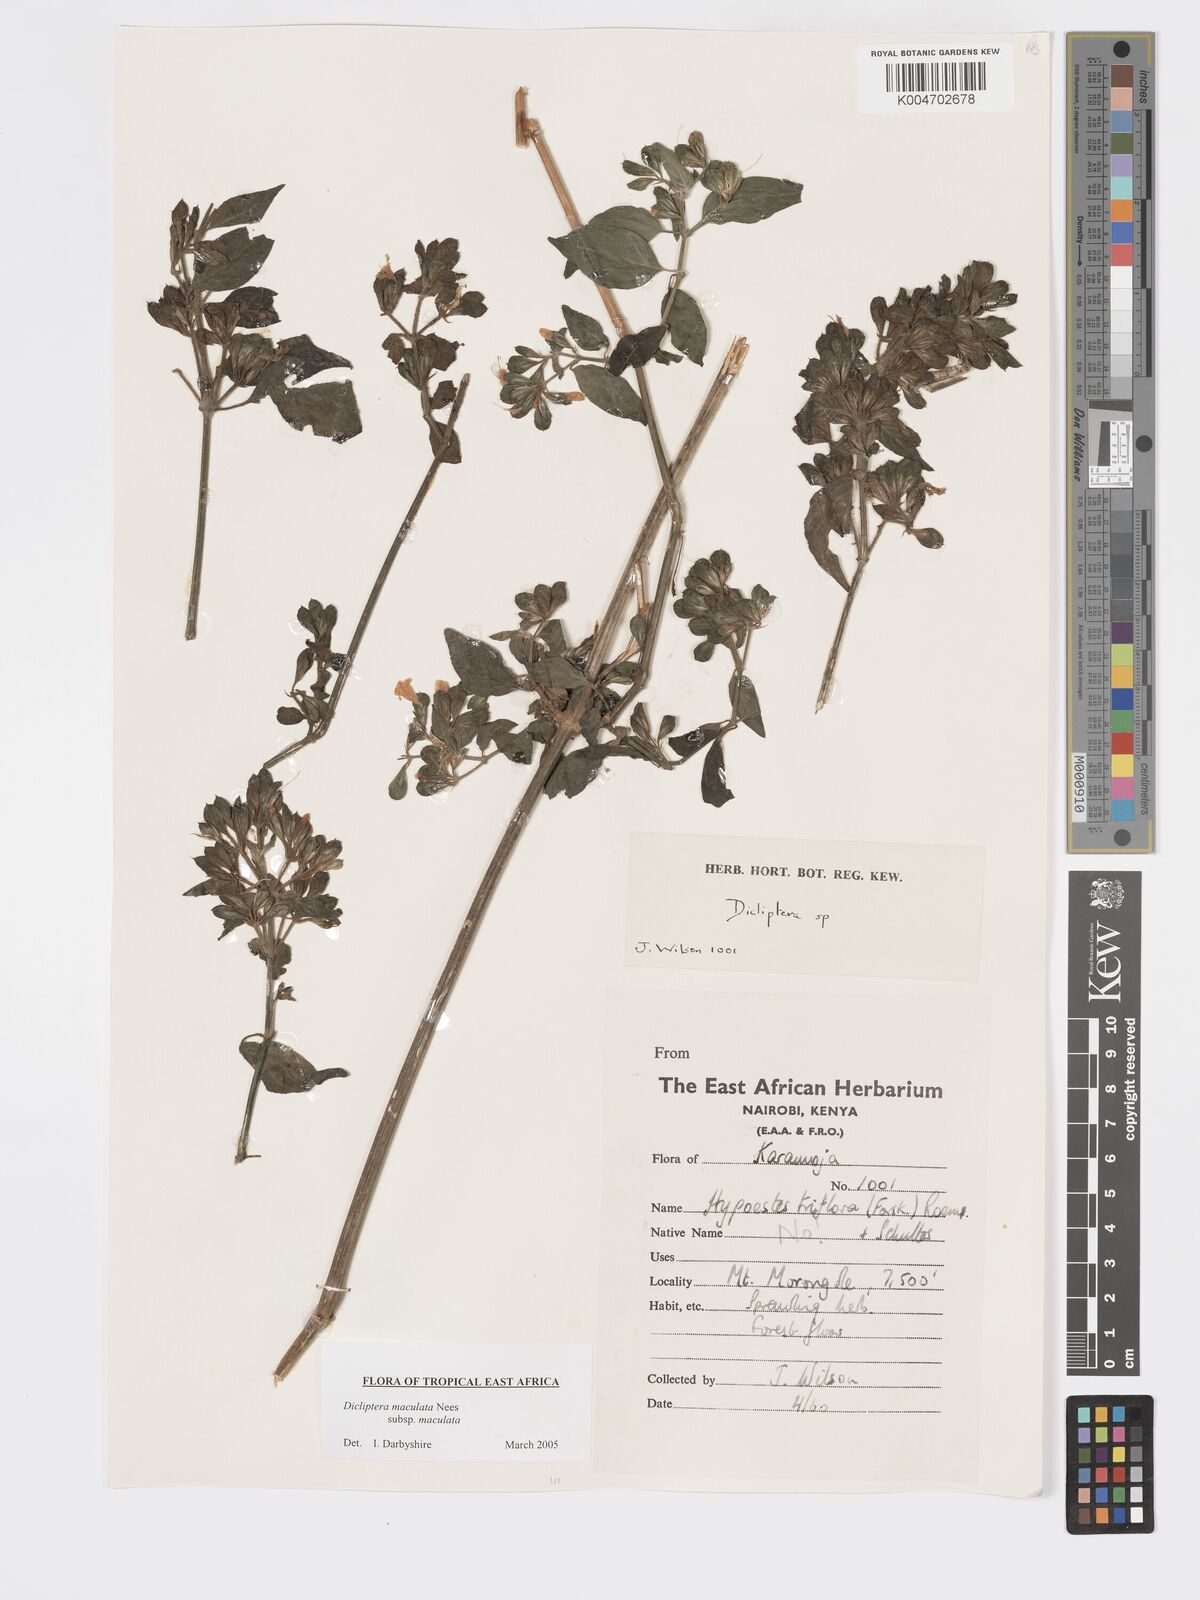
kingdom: Plantae
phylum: Tracheophyta
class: Magnoliopsida
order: Lamiales
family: Acanthaceae
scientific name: Acanthaceae
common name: Acanthaceae
